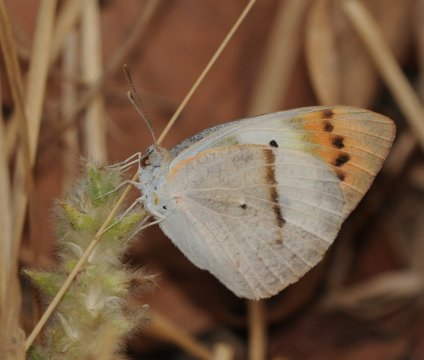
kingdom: Animalia
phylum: Arthropoda
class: Insecta
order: Lepidoptera
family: Pieridae
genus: Colotis
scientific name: Colotis ione
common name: Bushveld Purple Tip
